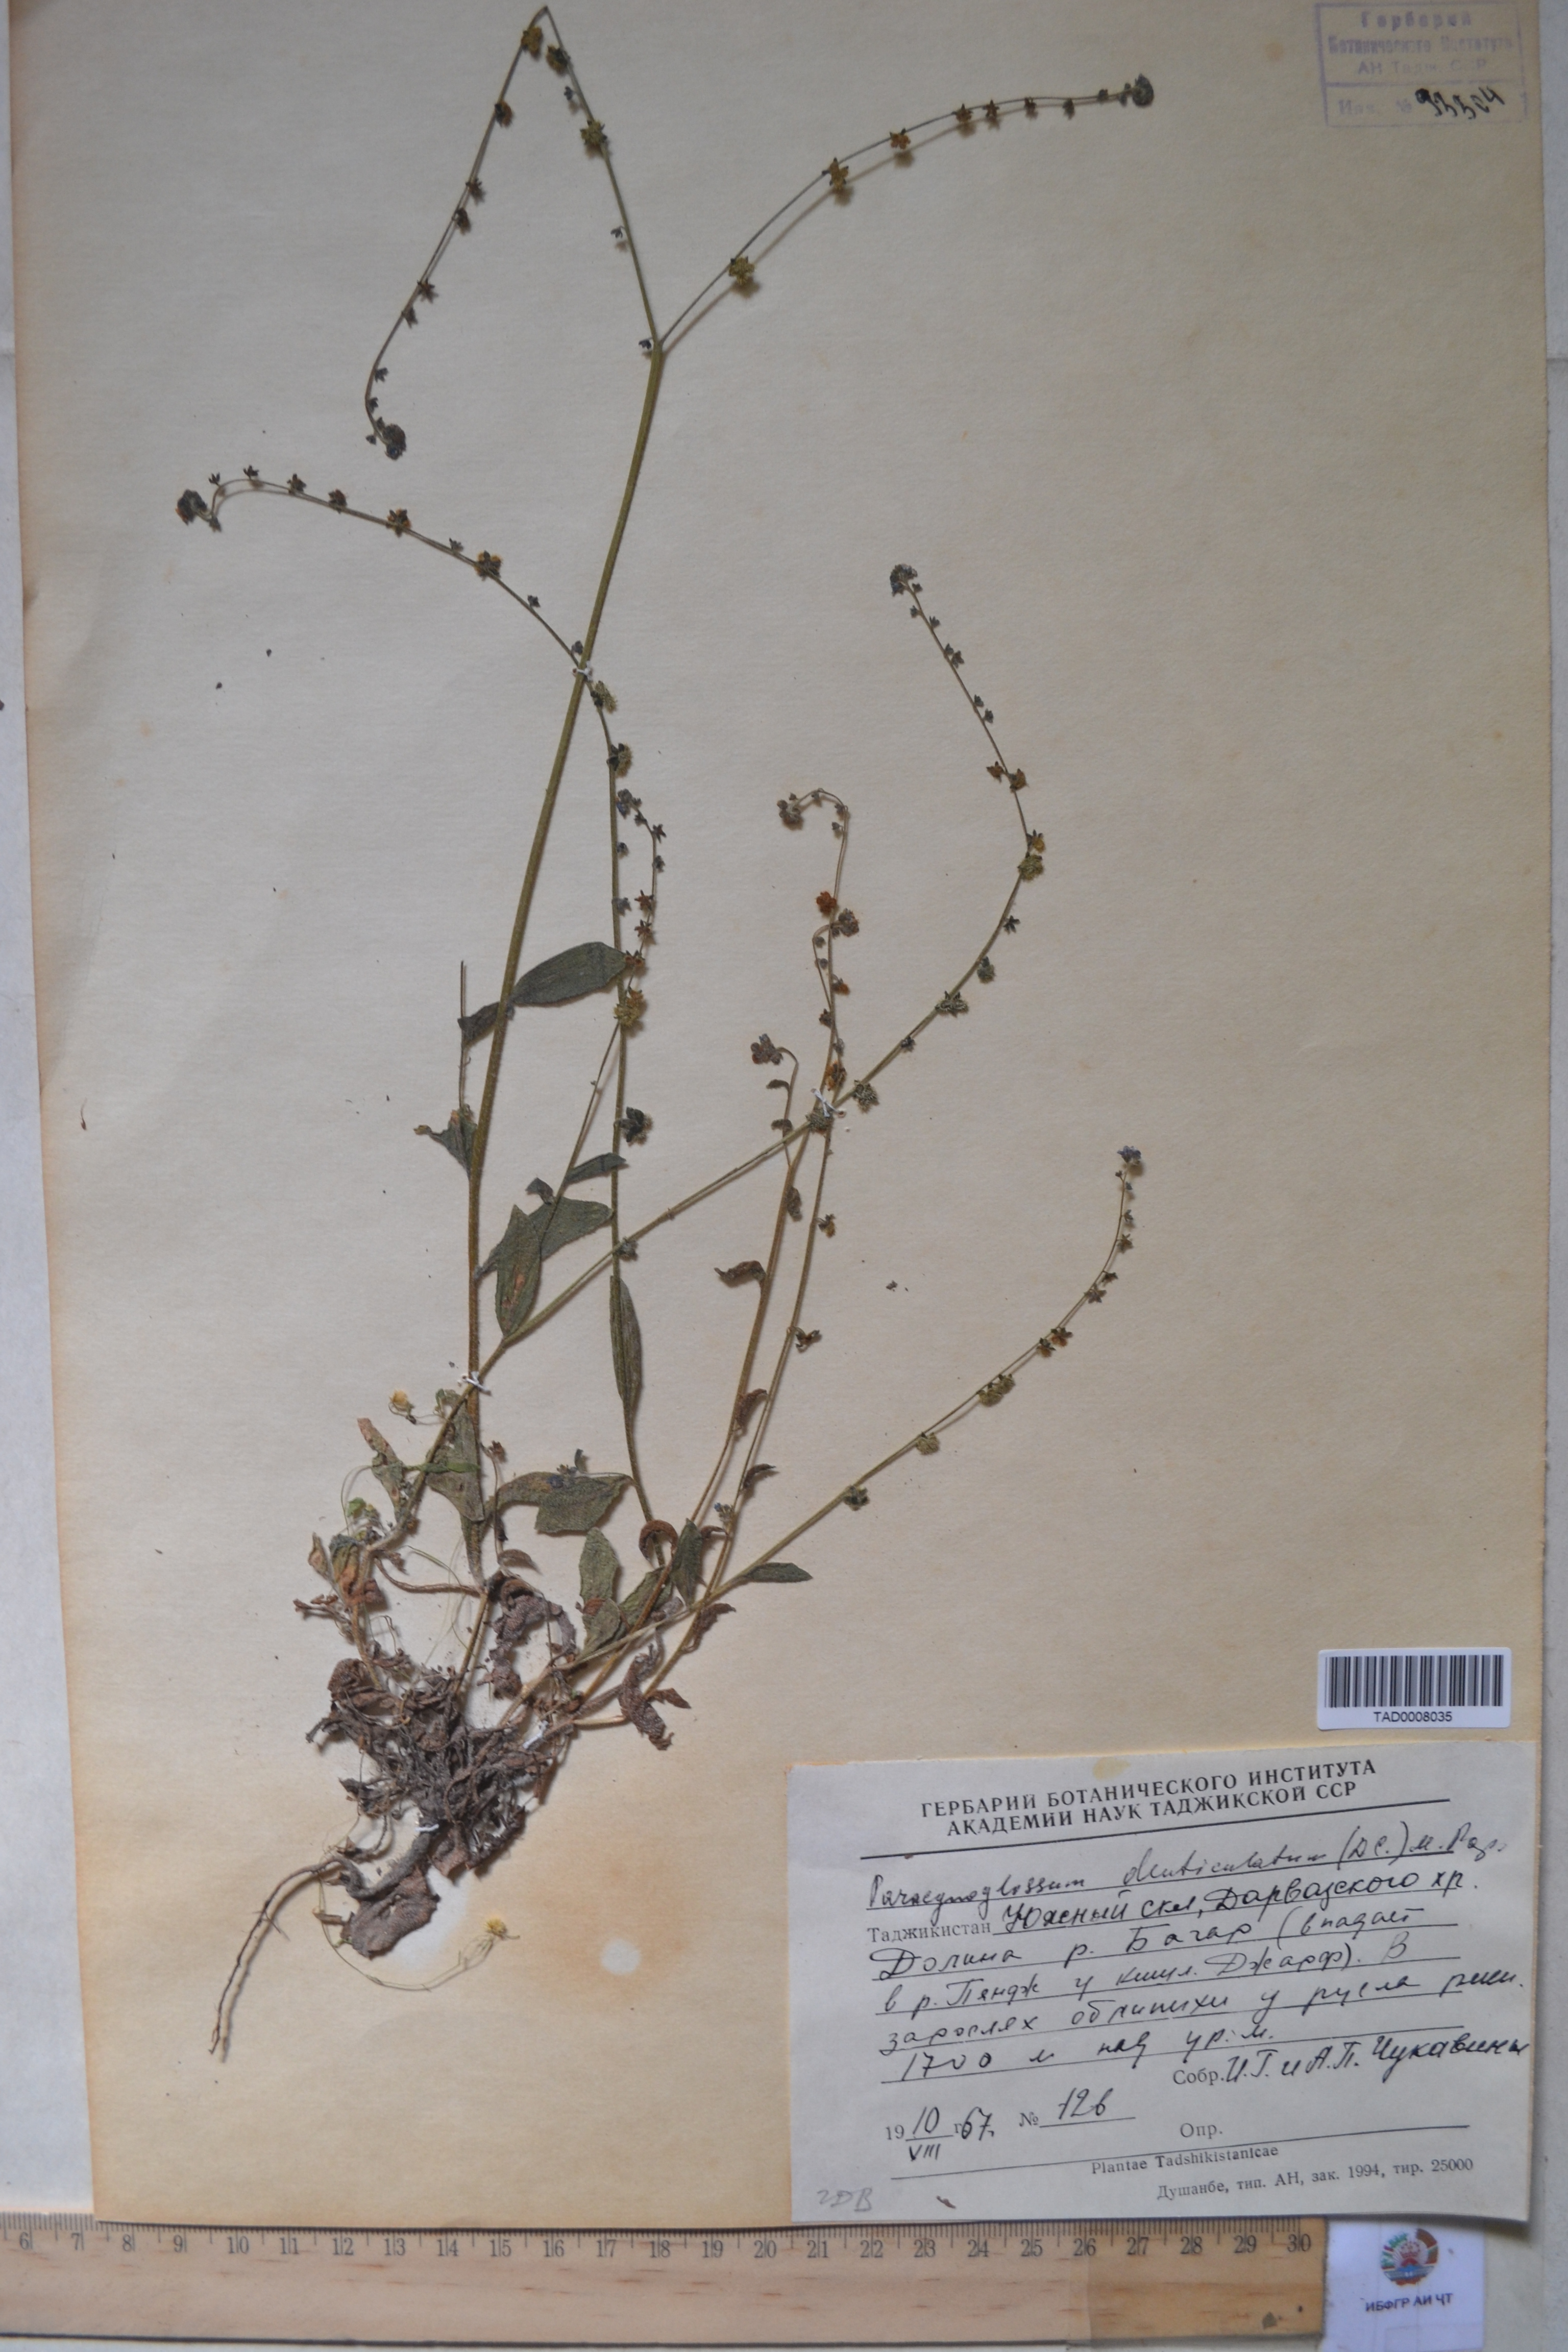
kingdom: Plantae
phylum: Tracheophyta
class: Magnoliopsida
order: Boraginales
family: Boraginaceae
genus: Paracynoglossum
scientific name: Paracynoglossum glochidiatum
